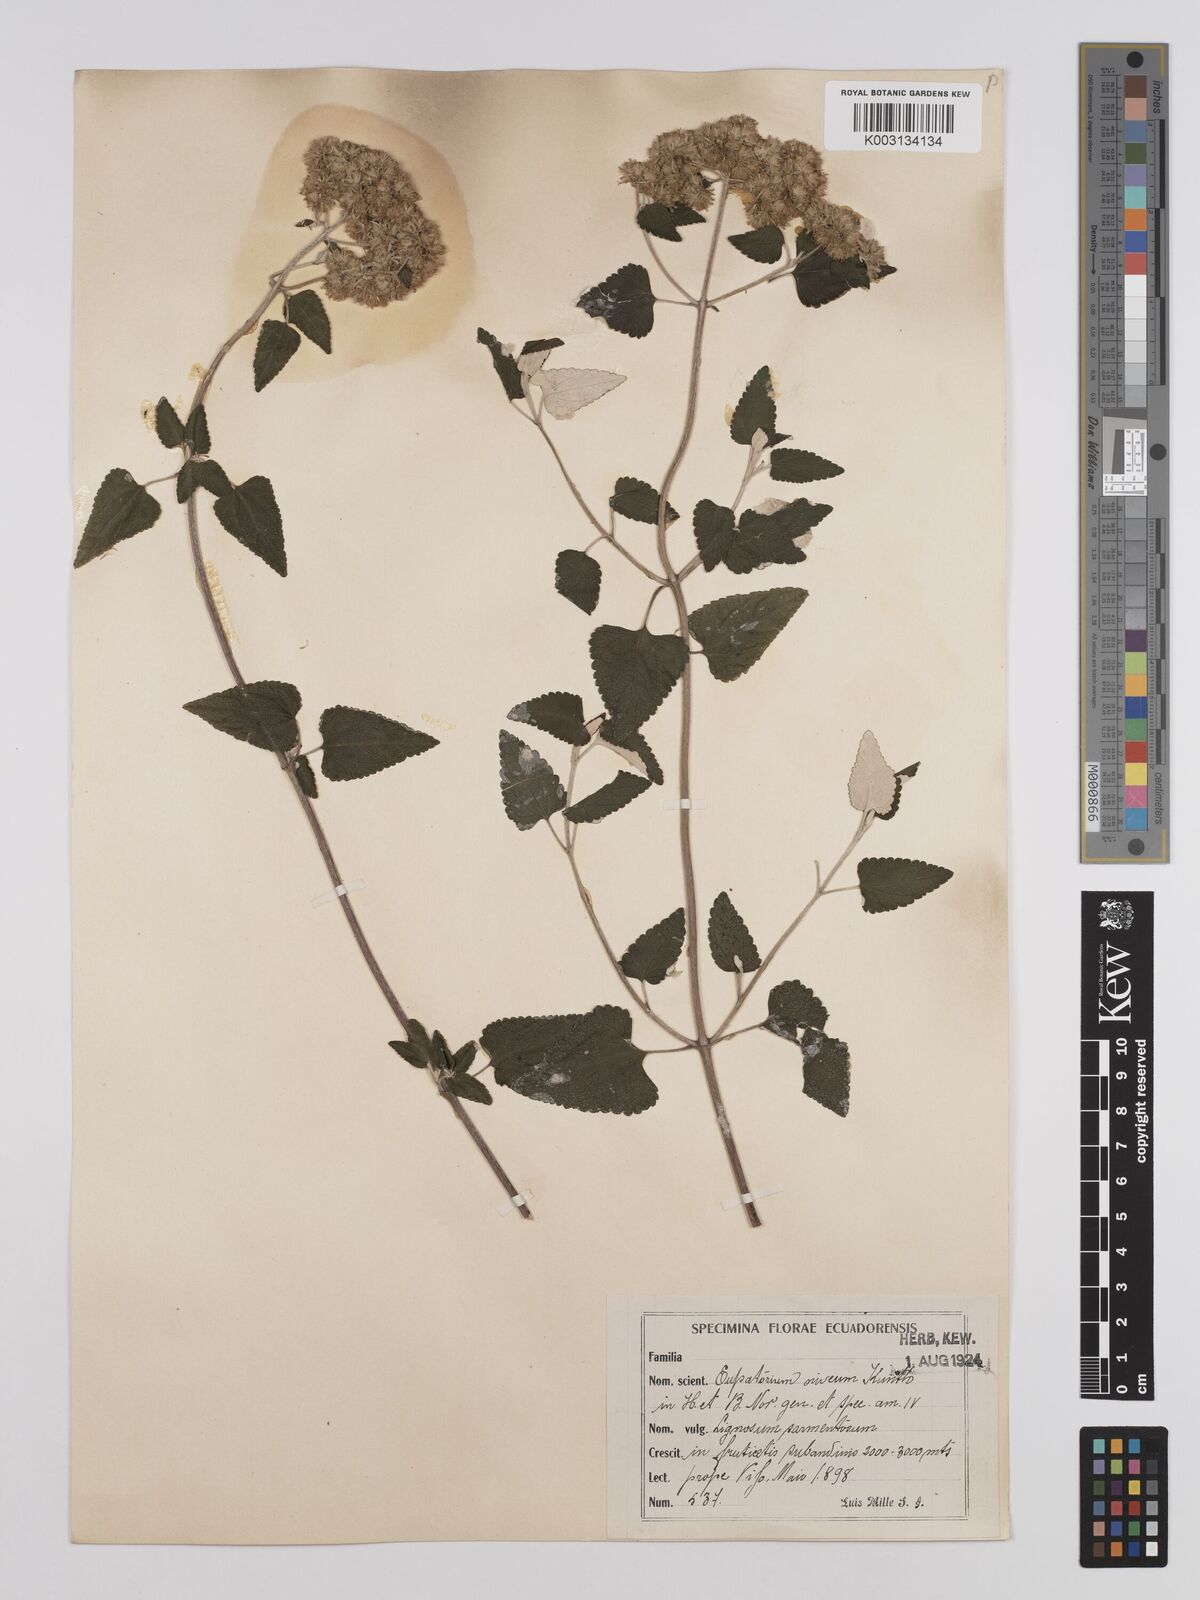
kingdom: Plantae
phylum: Tracheophyta
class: Magnoliopsida
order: Asterales
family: Asteraceae
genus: Cronquistianthus
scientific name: Cronquistianthus niveus
